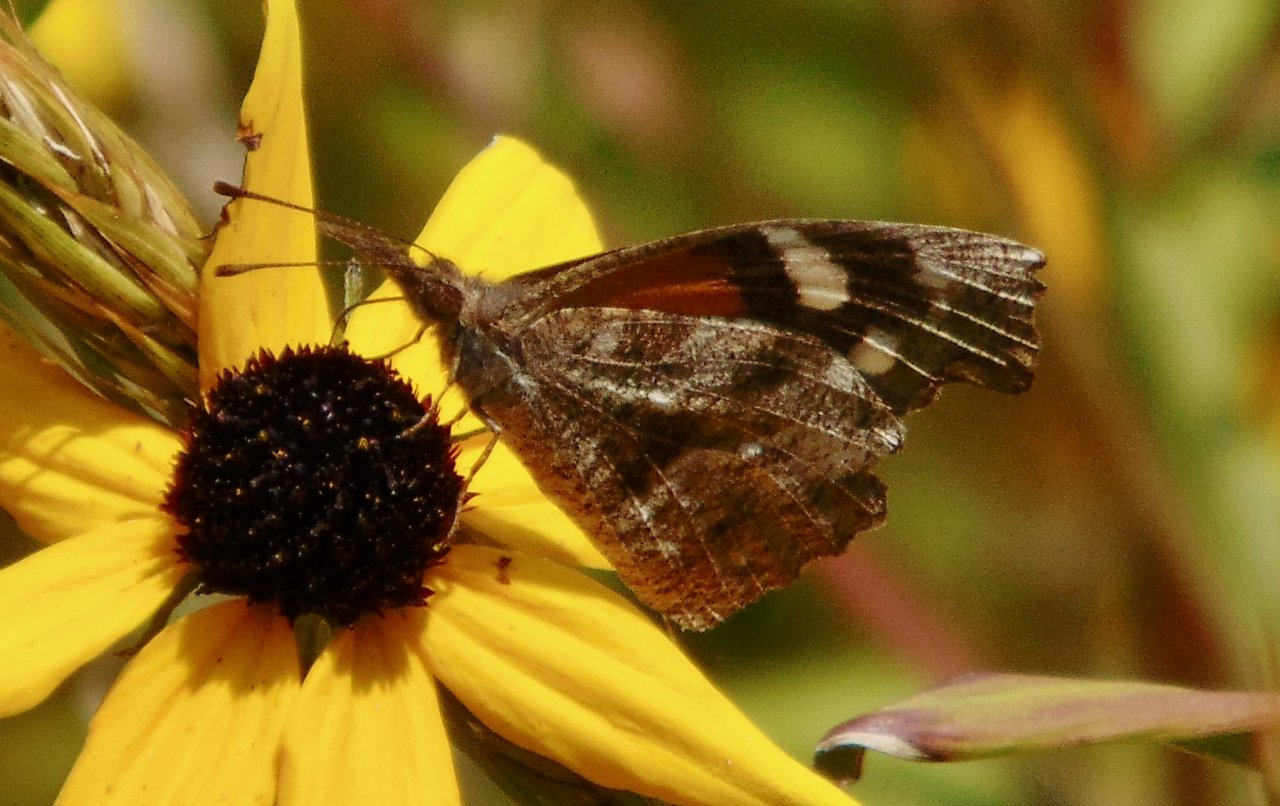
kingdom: Animalia
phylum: Arthropoda
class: Insecta
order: Lepidoptera
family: Nymphalidae
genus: Libytheana
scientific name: Libytheana carinenta
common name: American Snout
